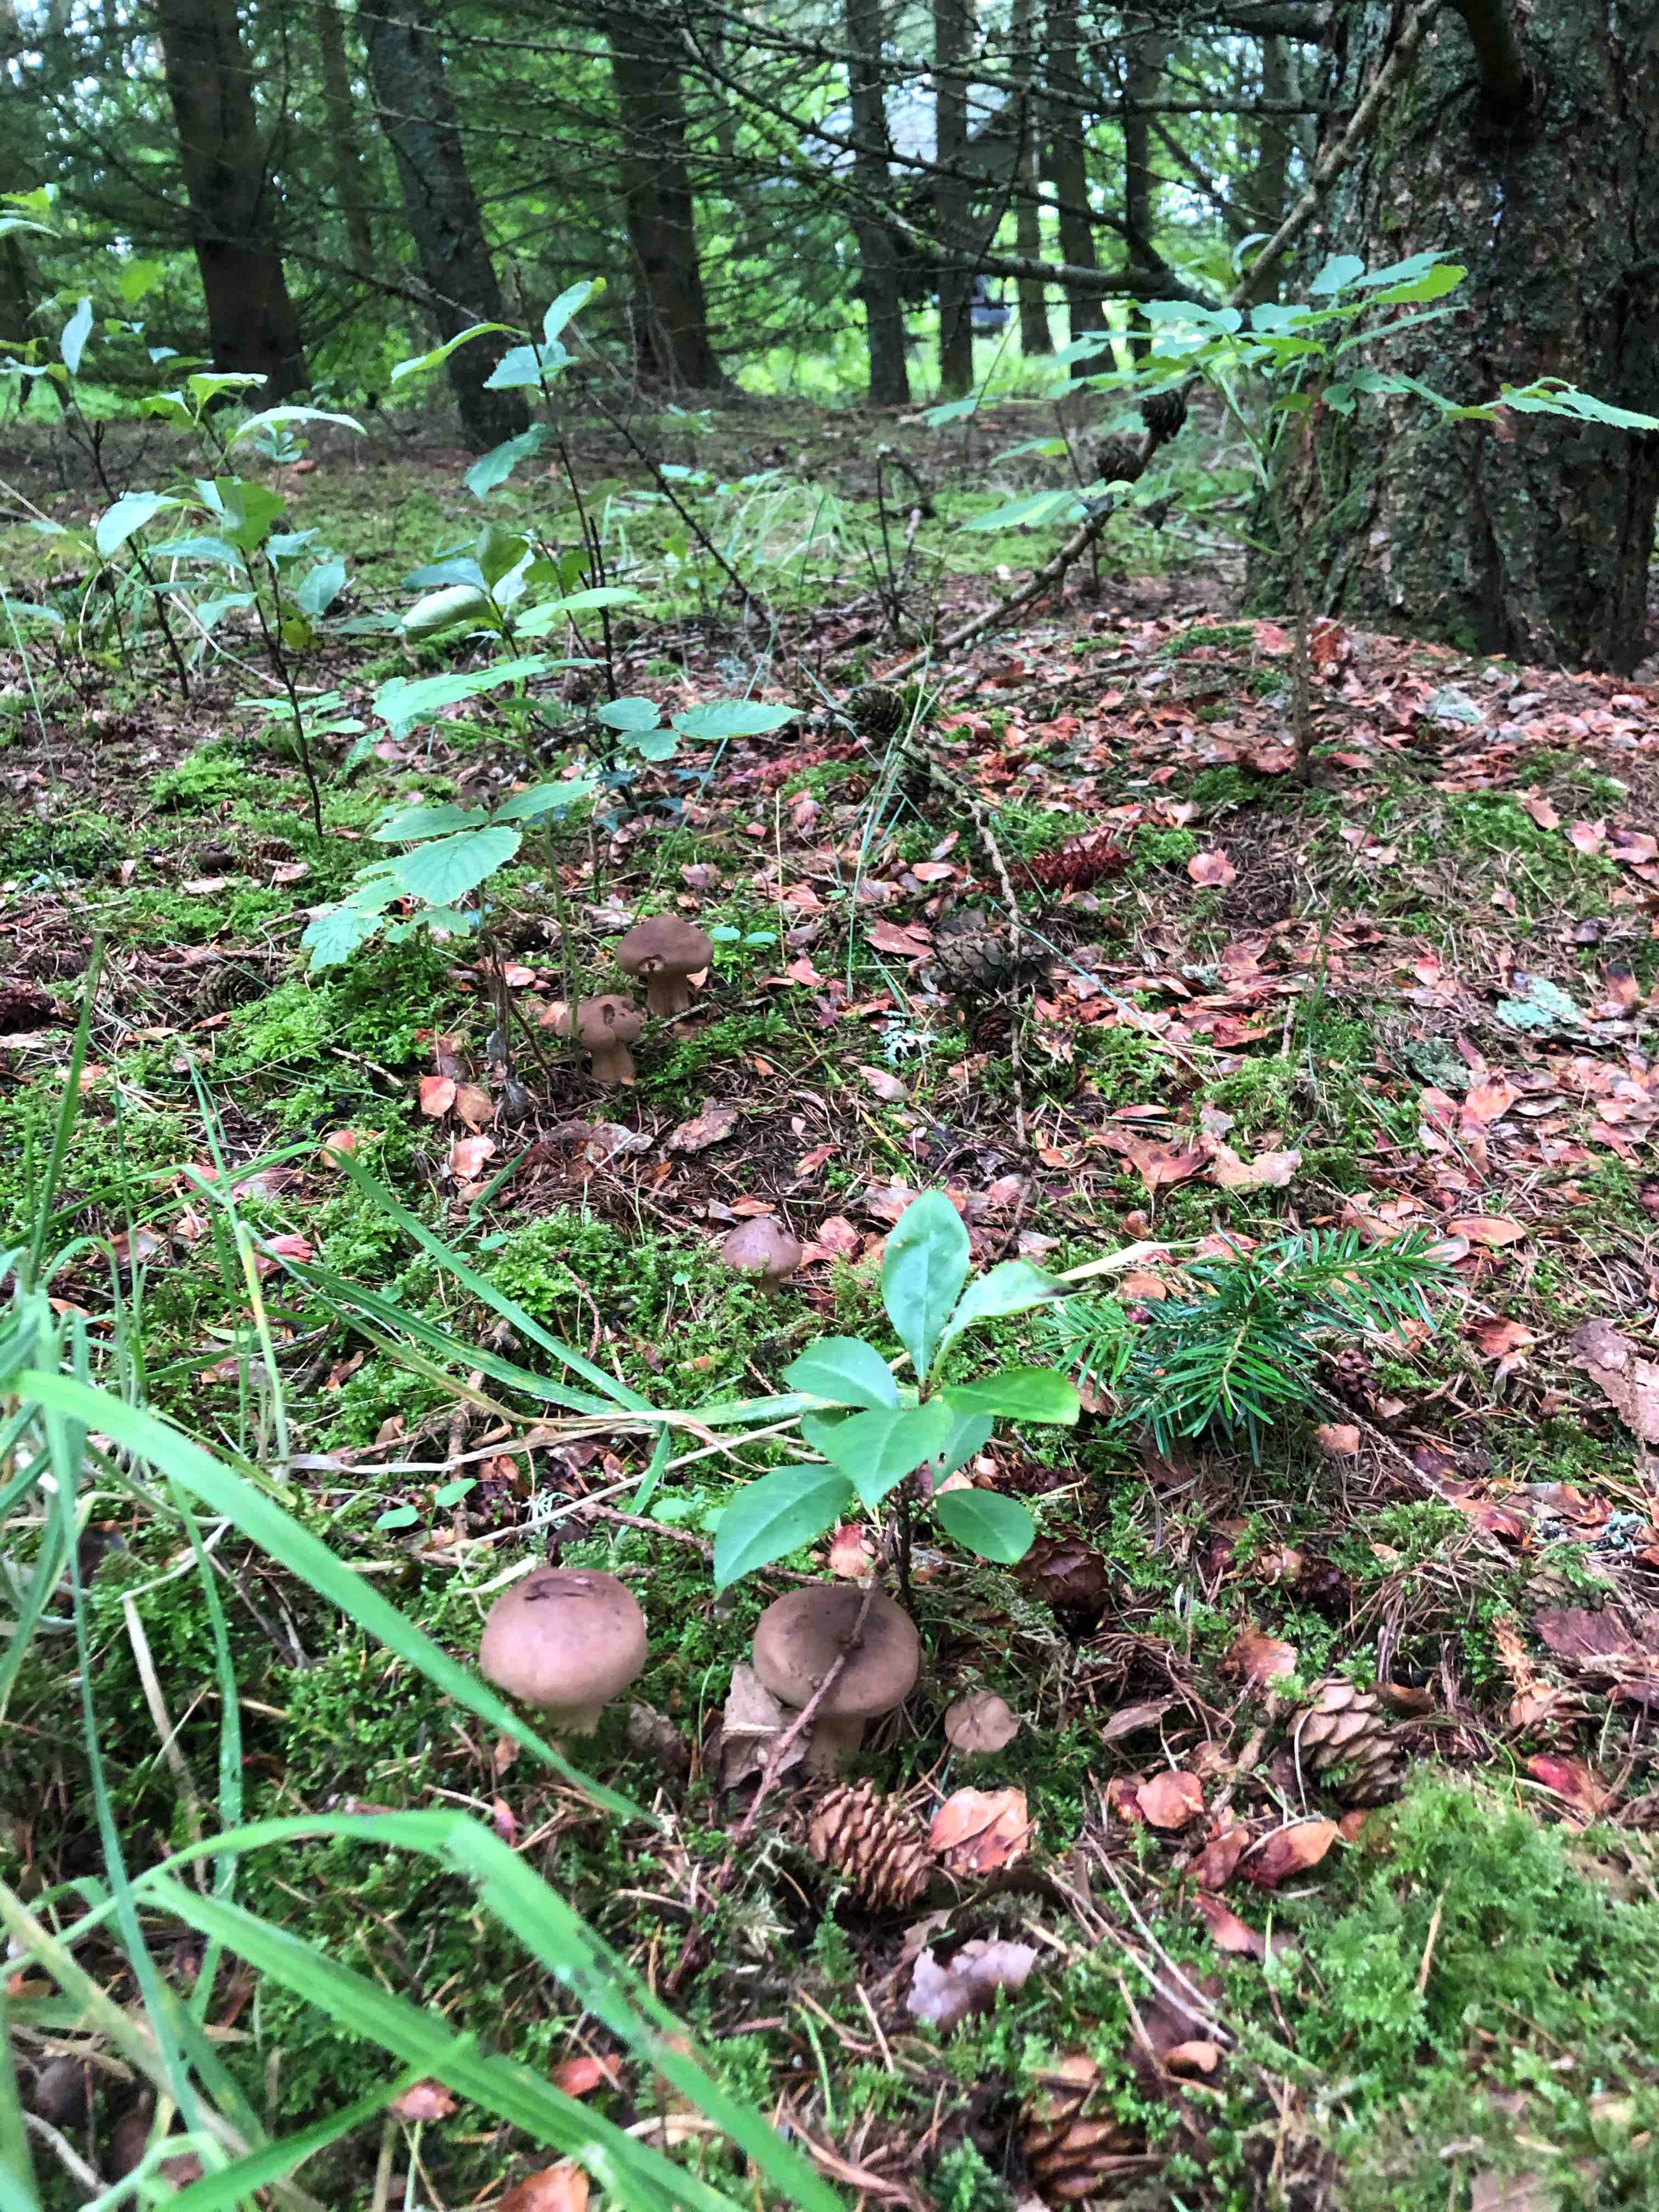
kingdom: Fungi
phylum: Basidiomycota
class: Agaricomycetes
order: Agaricales
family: Tricholomataceae
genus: Tricholoma
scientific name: Tricholoma imbricatum
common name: skællet ridderhat
